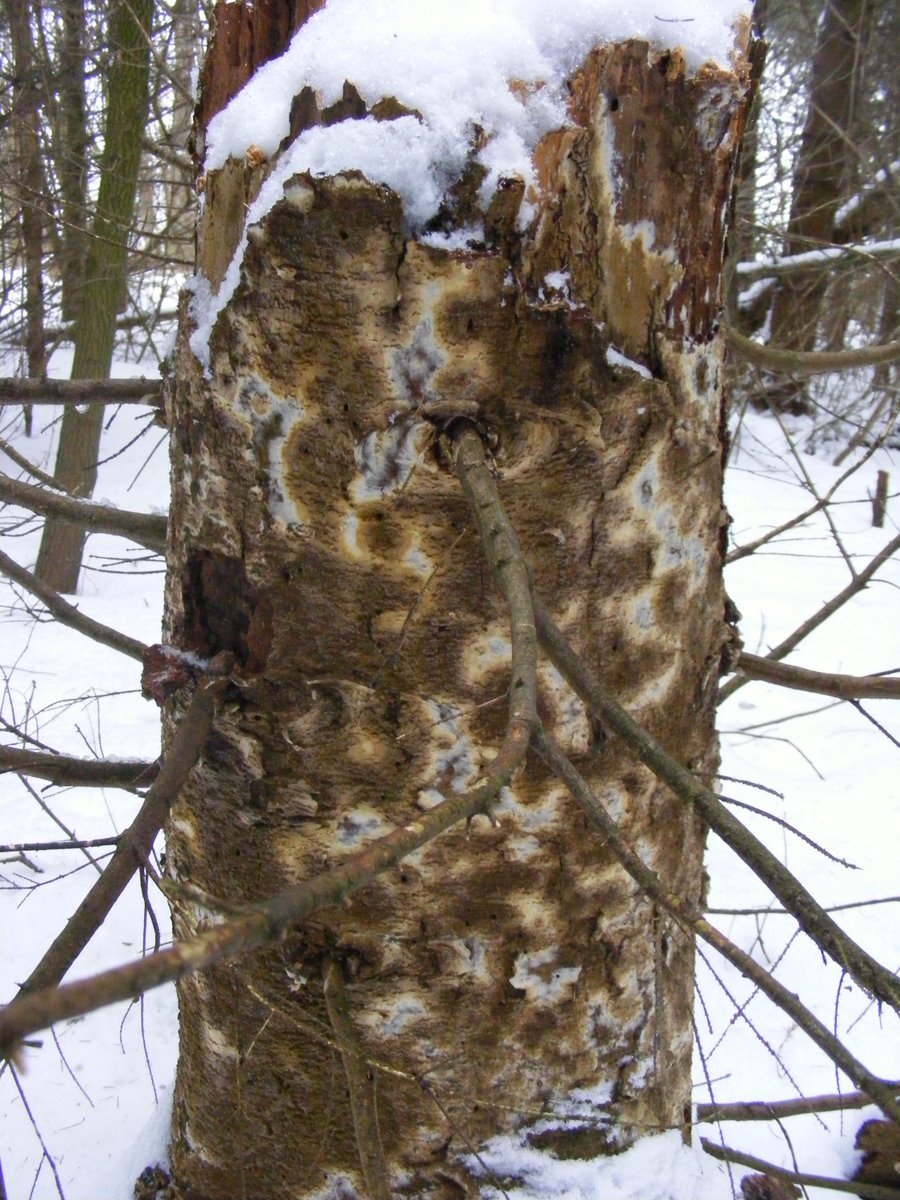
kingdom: Fungi
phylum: Basidiomycota
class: Agaricomycetes
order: Boletales
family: Coniophoraceae
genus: Coniophora
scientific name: Coniophora puteana
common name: gul tømmersvamp
